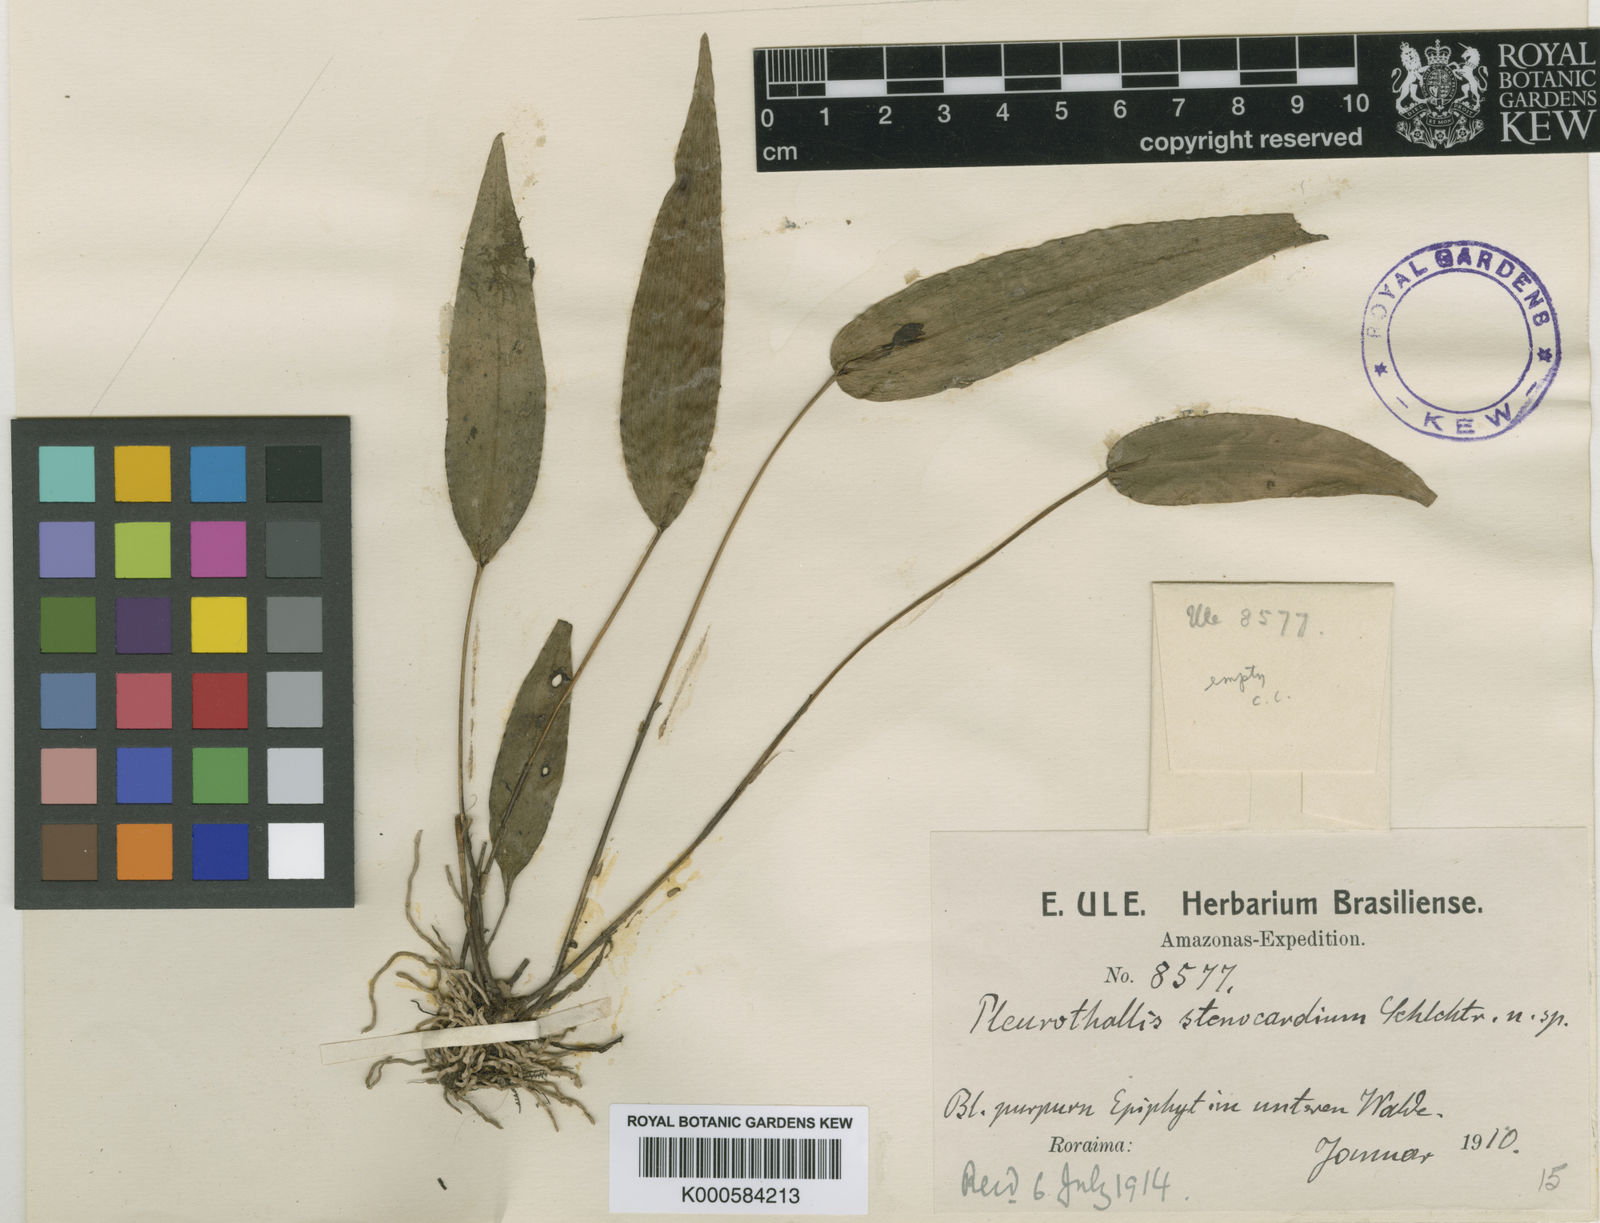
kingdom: Plantae
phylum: Tracheophyta
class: Liliopsida
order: Asparagales
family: Orchidaceae
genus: Pleurothallis
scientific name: Pleurothallis bivalvis
